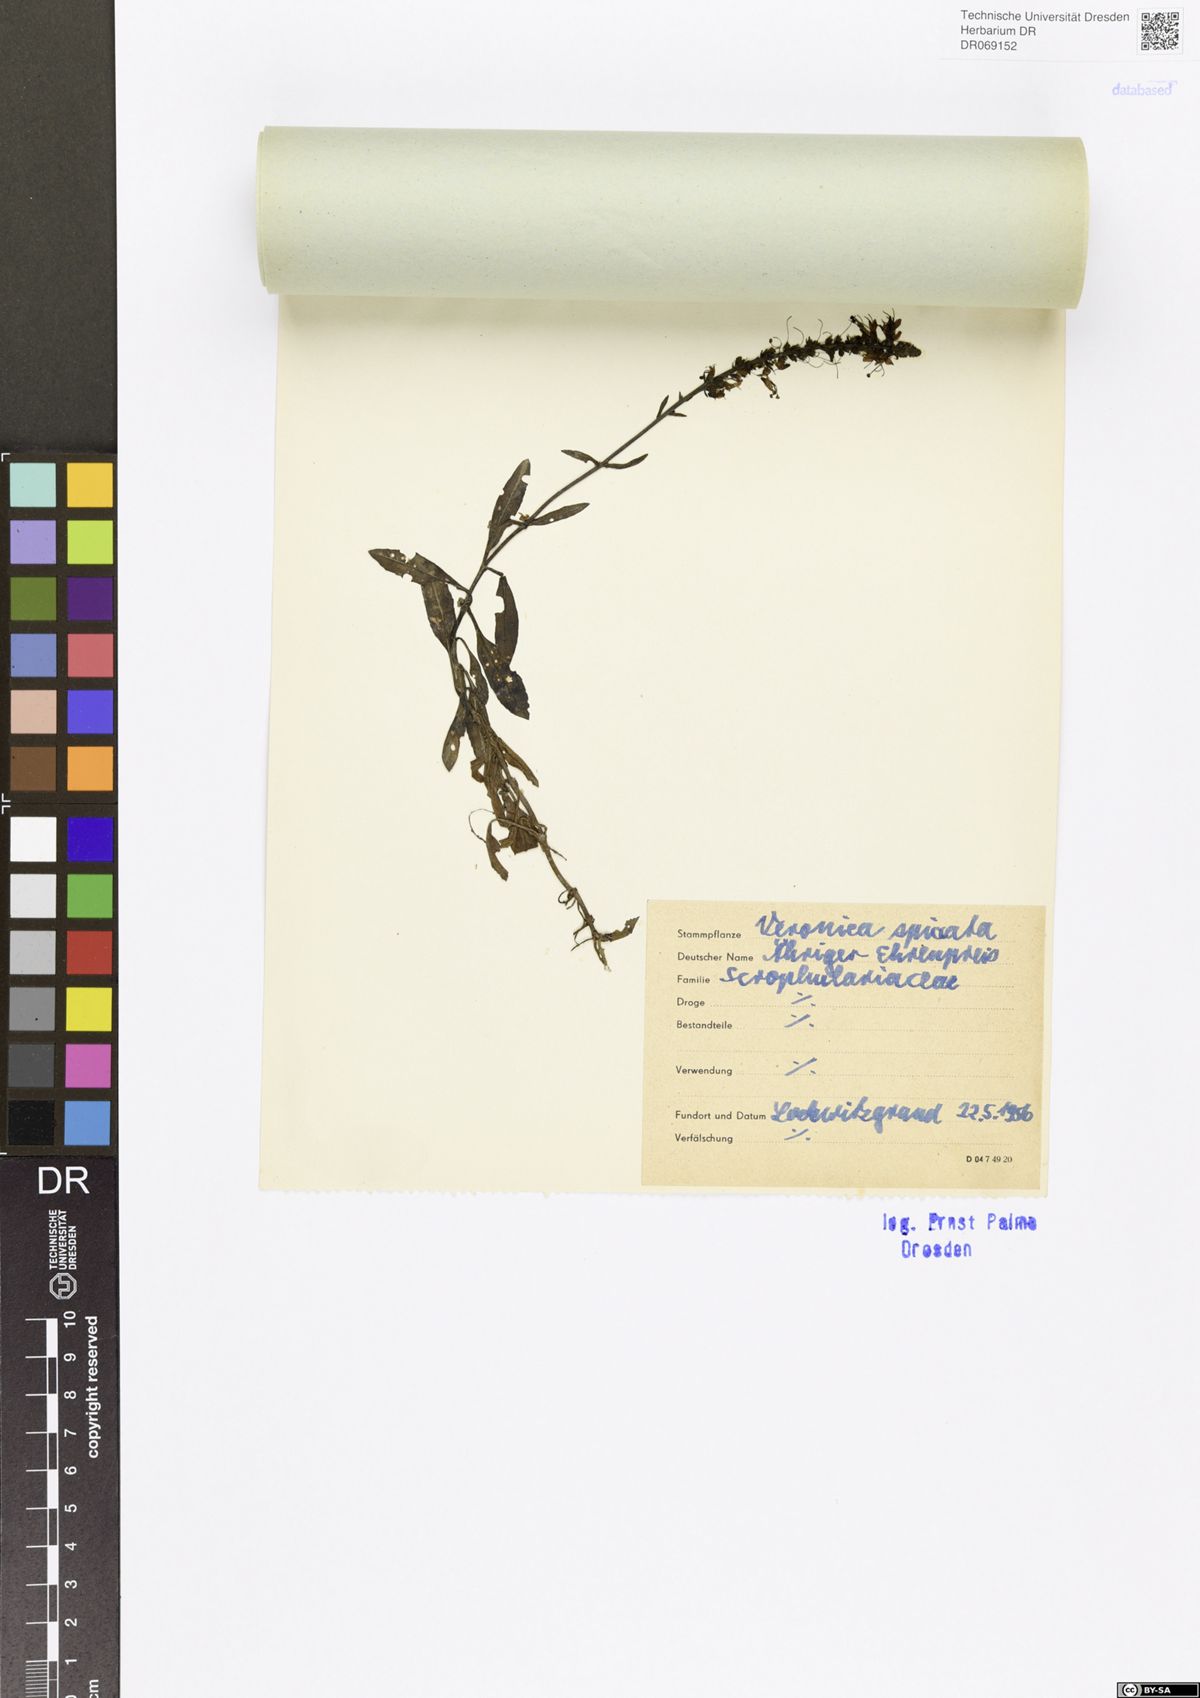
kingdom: Plantae
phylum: Tracheophyta
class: Magnoliopsida
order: Lamiales
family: Plantaginaceae
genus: Veronica
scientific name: Veronica spicata
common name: Spiked speedwell
